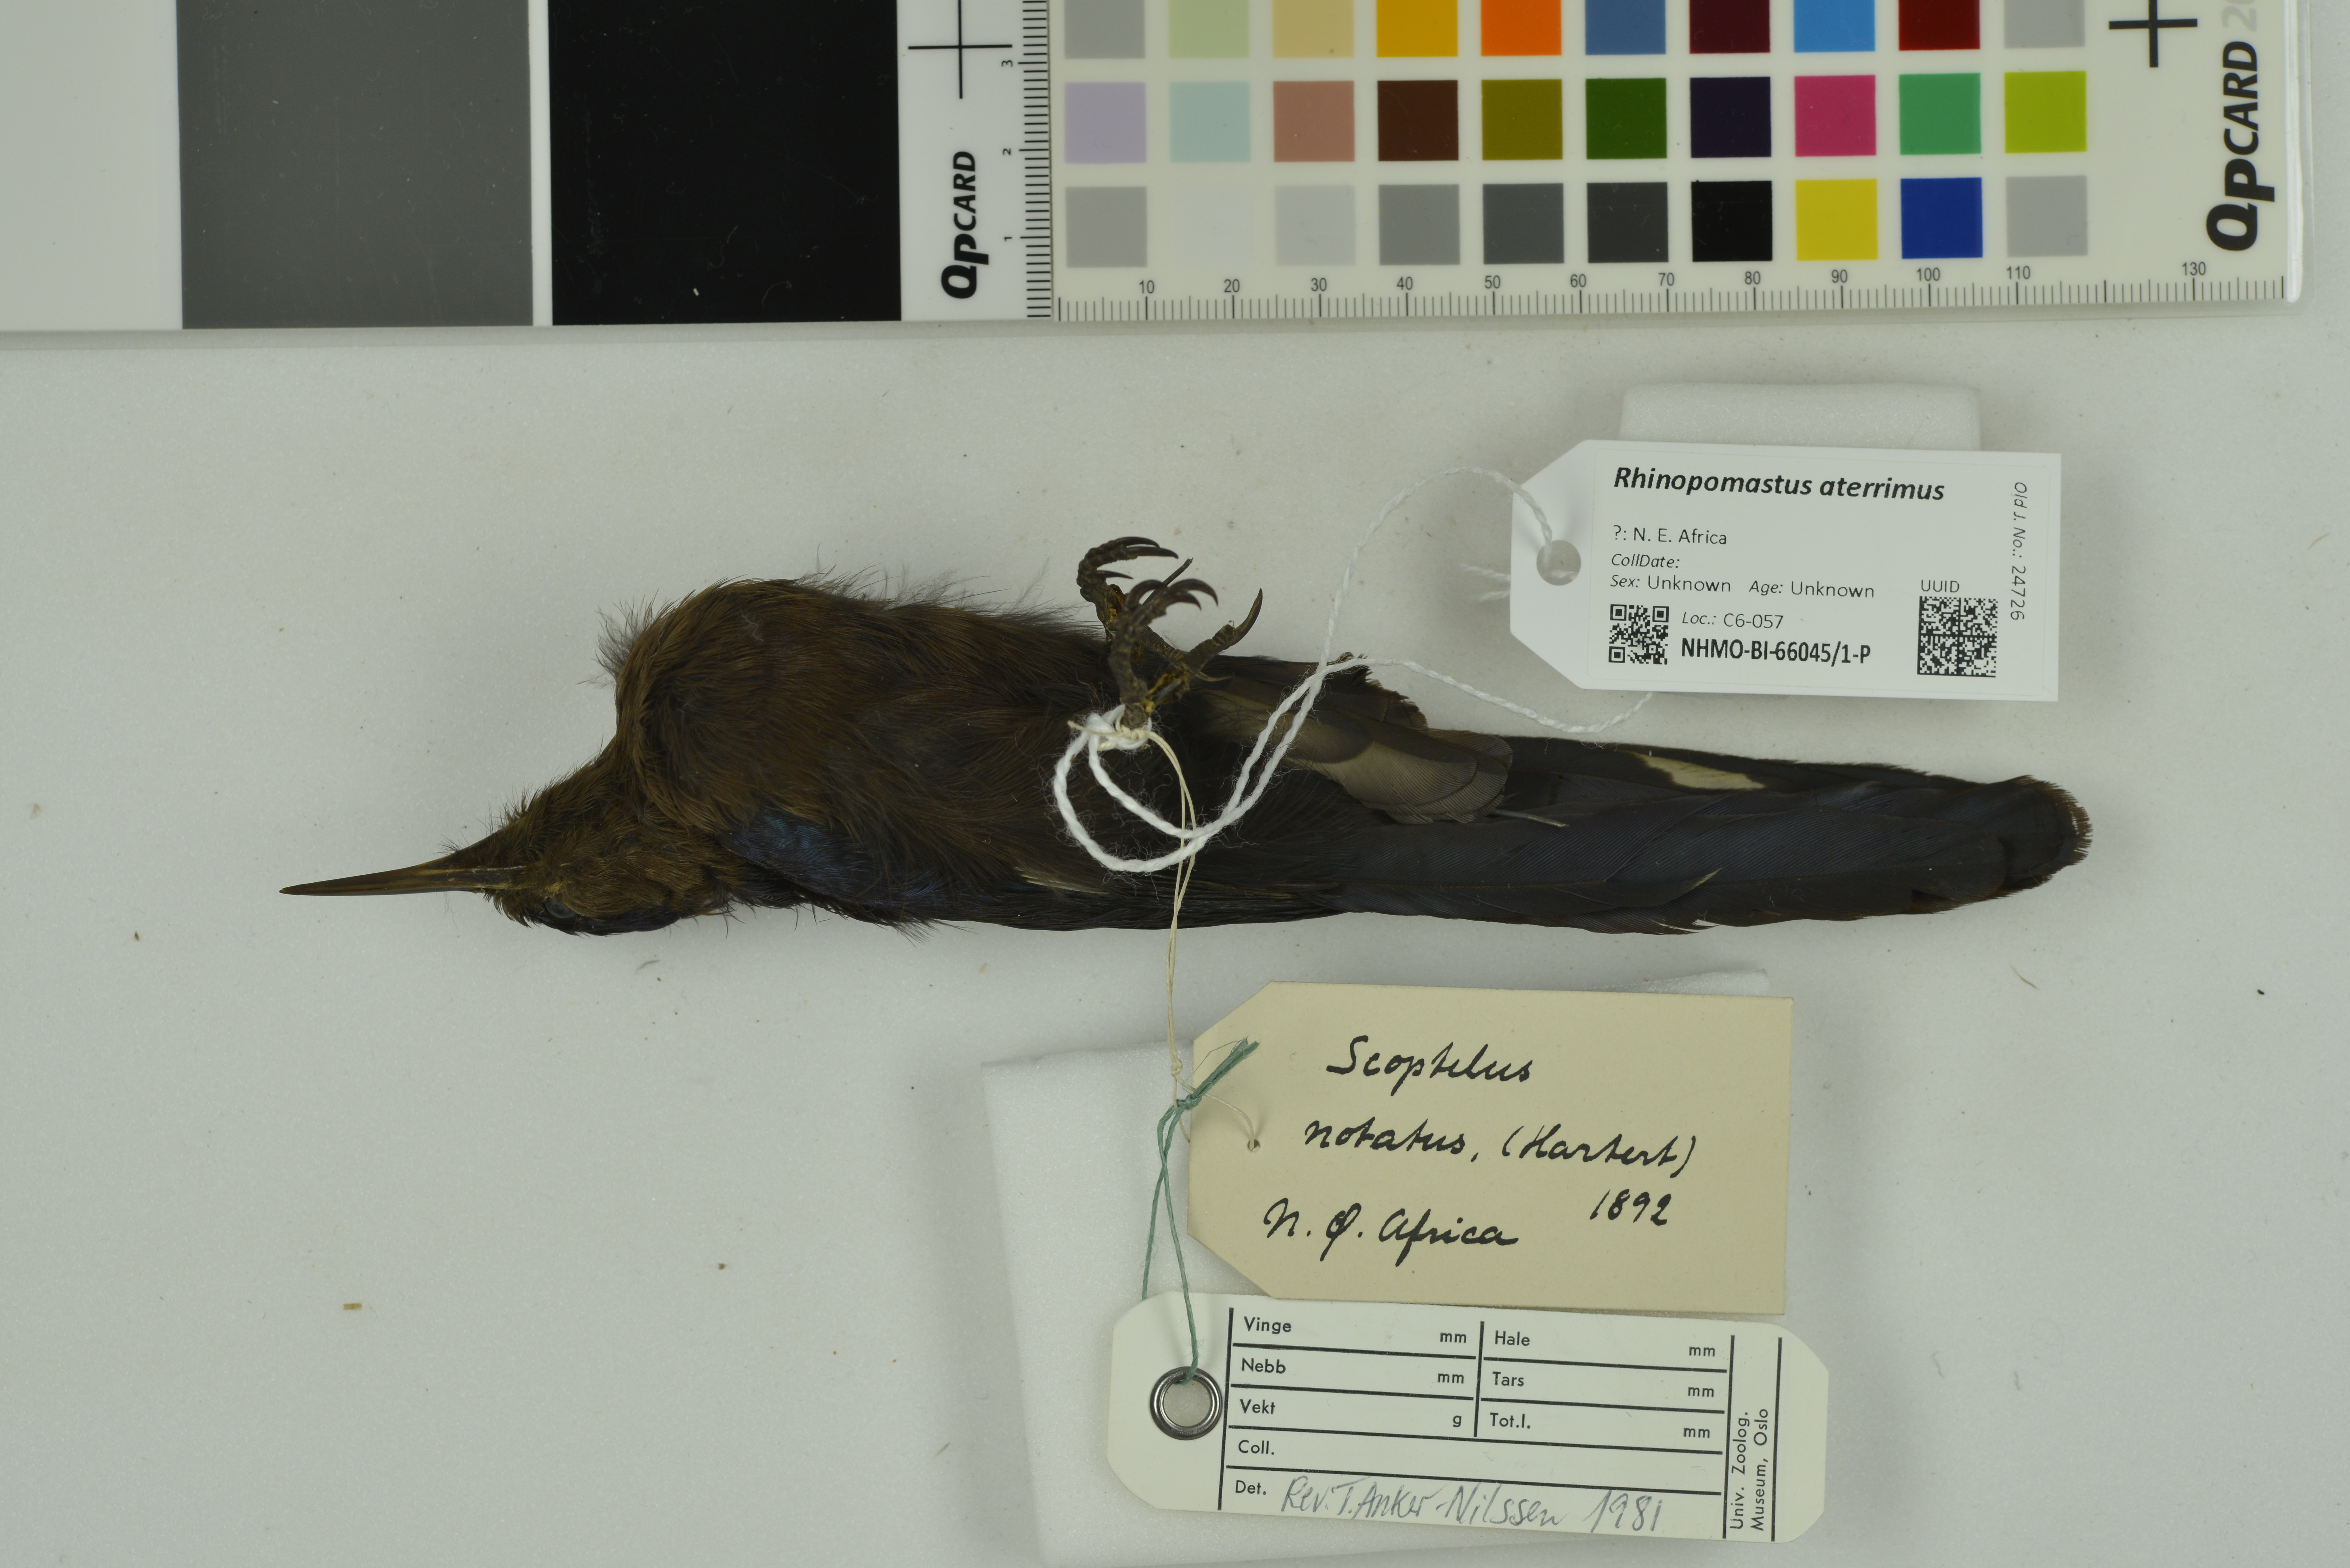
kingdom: Animalia
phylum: Chordata
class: Aves
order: Bucerotiformes
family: Phoeniculidae
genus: Rhinopomastus
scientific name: Rhinopomastus aterrimus
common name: Black scimitarbill
